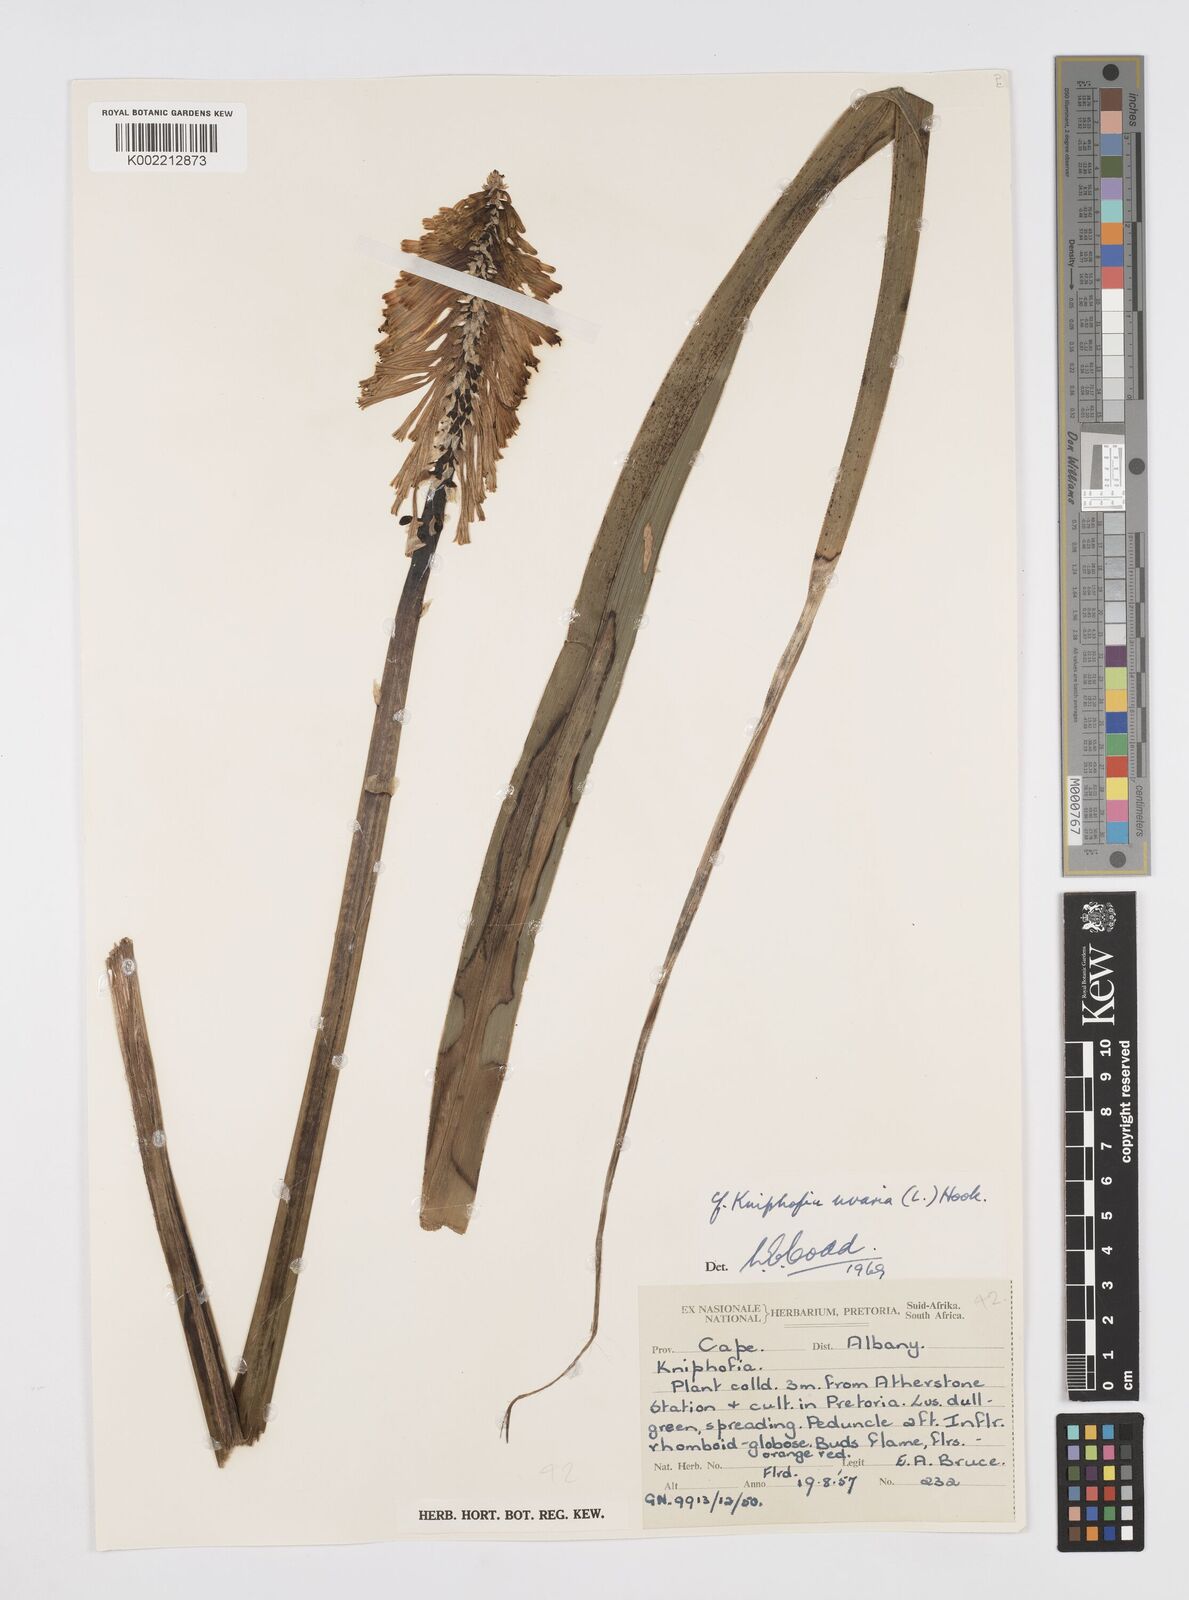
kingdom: Plantae
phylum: Tracheophyta
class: Liliopsida
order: Asparagales
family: Asphodelaceae
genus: Kniphofia
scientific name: Kniphofia uvaria
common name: Red-hot-poker
